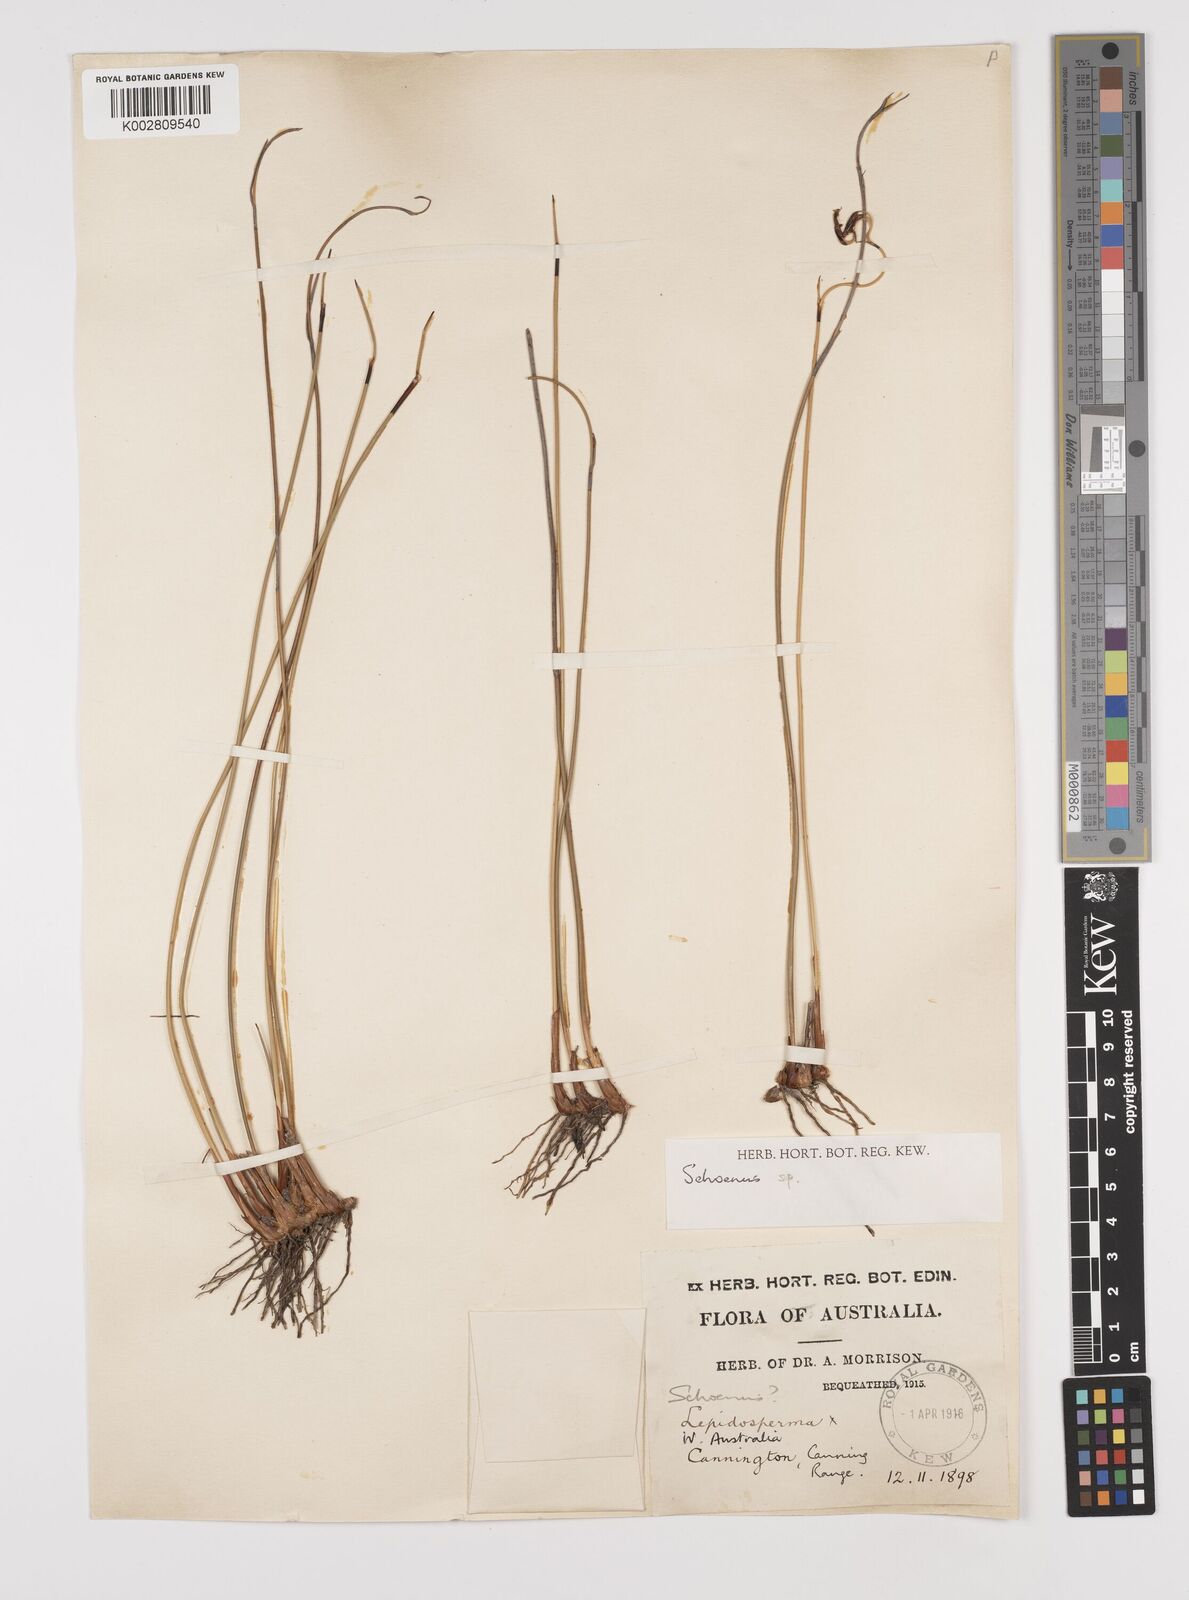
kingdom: Plantae
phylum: Tracheophyta
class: Liliopsida
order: Poales
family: Cyperaceae
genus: Schoenus
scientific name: Schoenus
